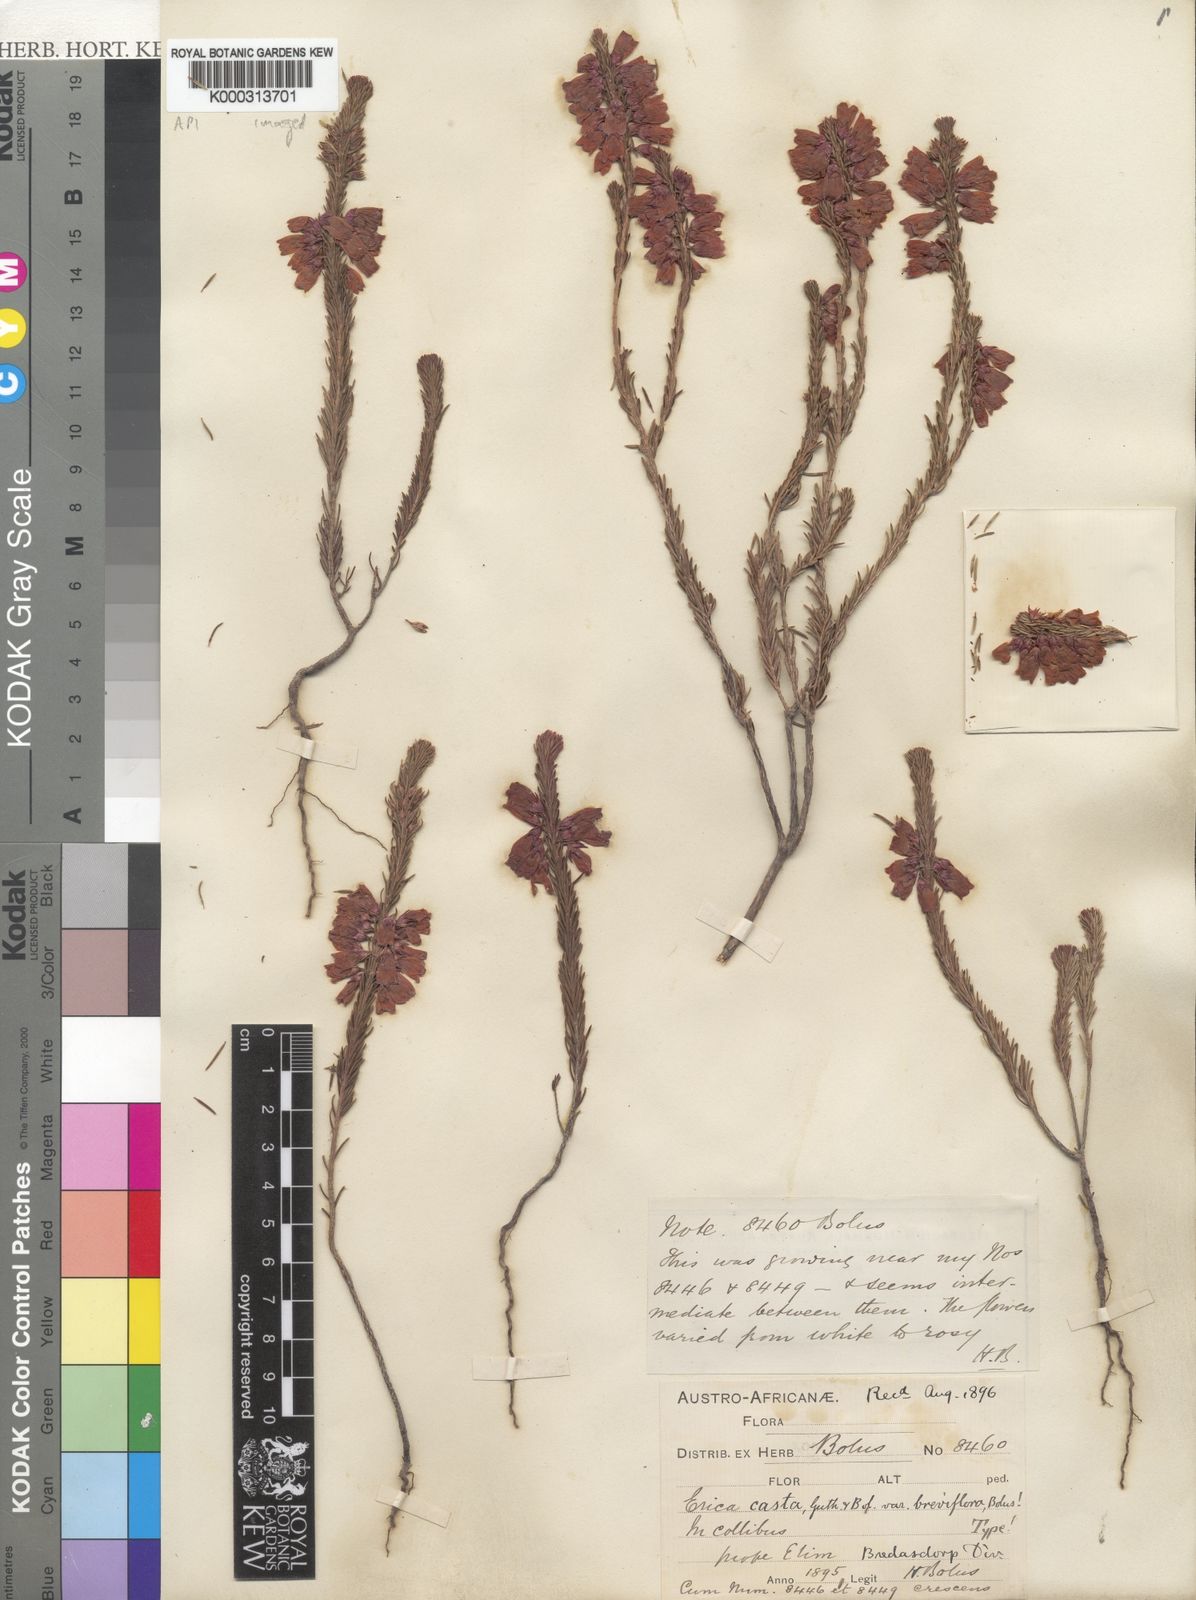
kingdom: Plantae
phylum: Tracheophyta
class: Magnoliopsida
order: Ericales
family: Ericaceae
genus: Erica
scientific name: Erica regia
